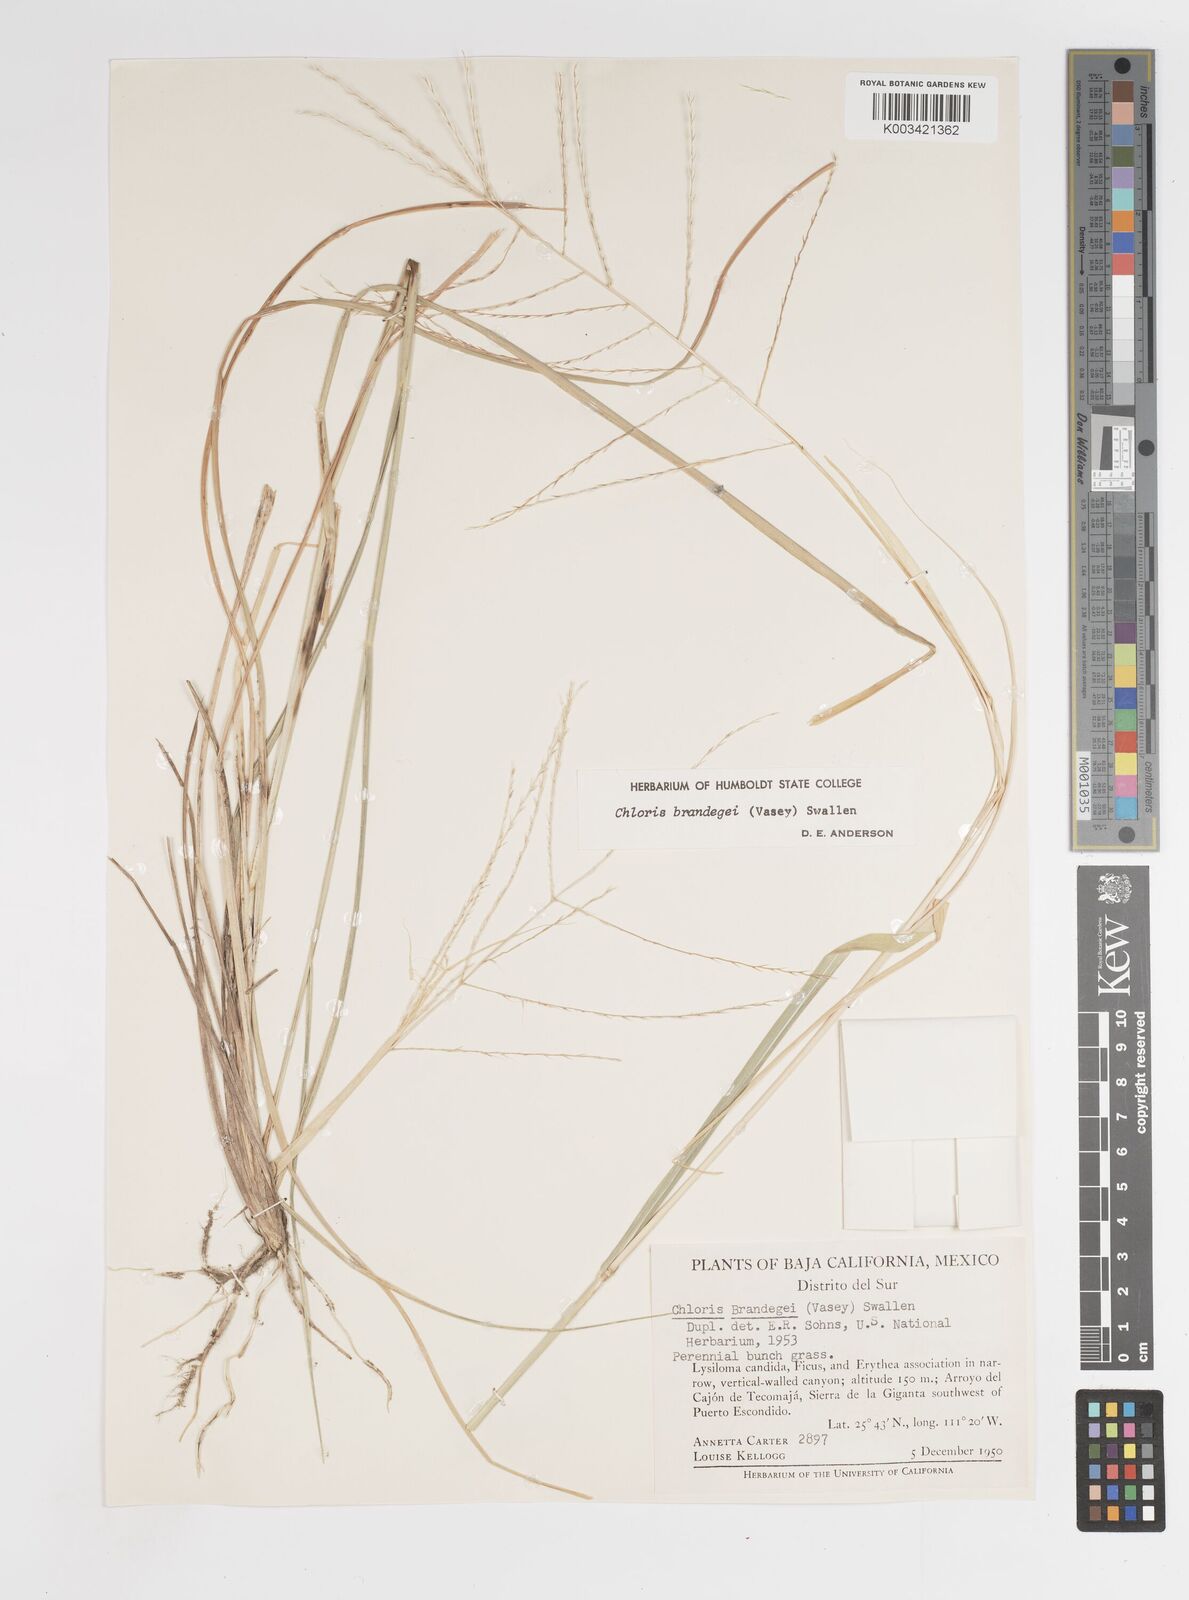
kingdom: Plantae
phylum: Tracheophyta
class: Liliopsida
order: Poales
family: Poaceae
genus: Tetrapogon
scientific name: Tetrapogon brandegeei
